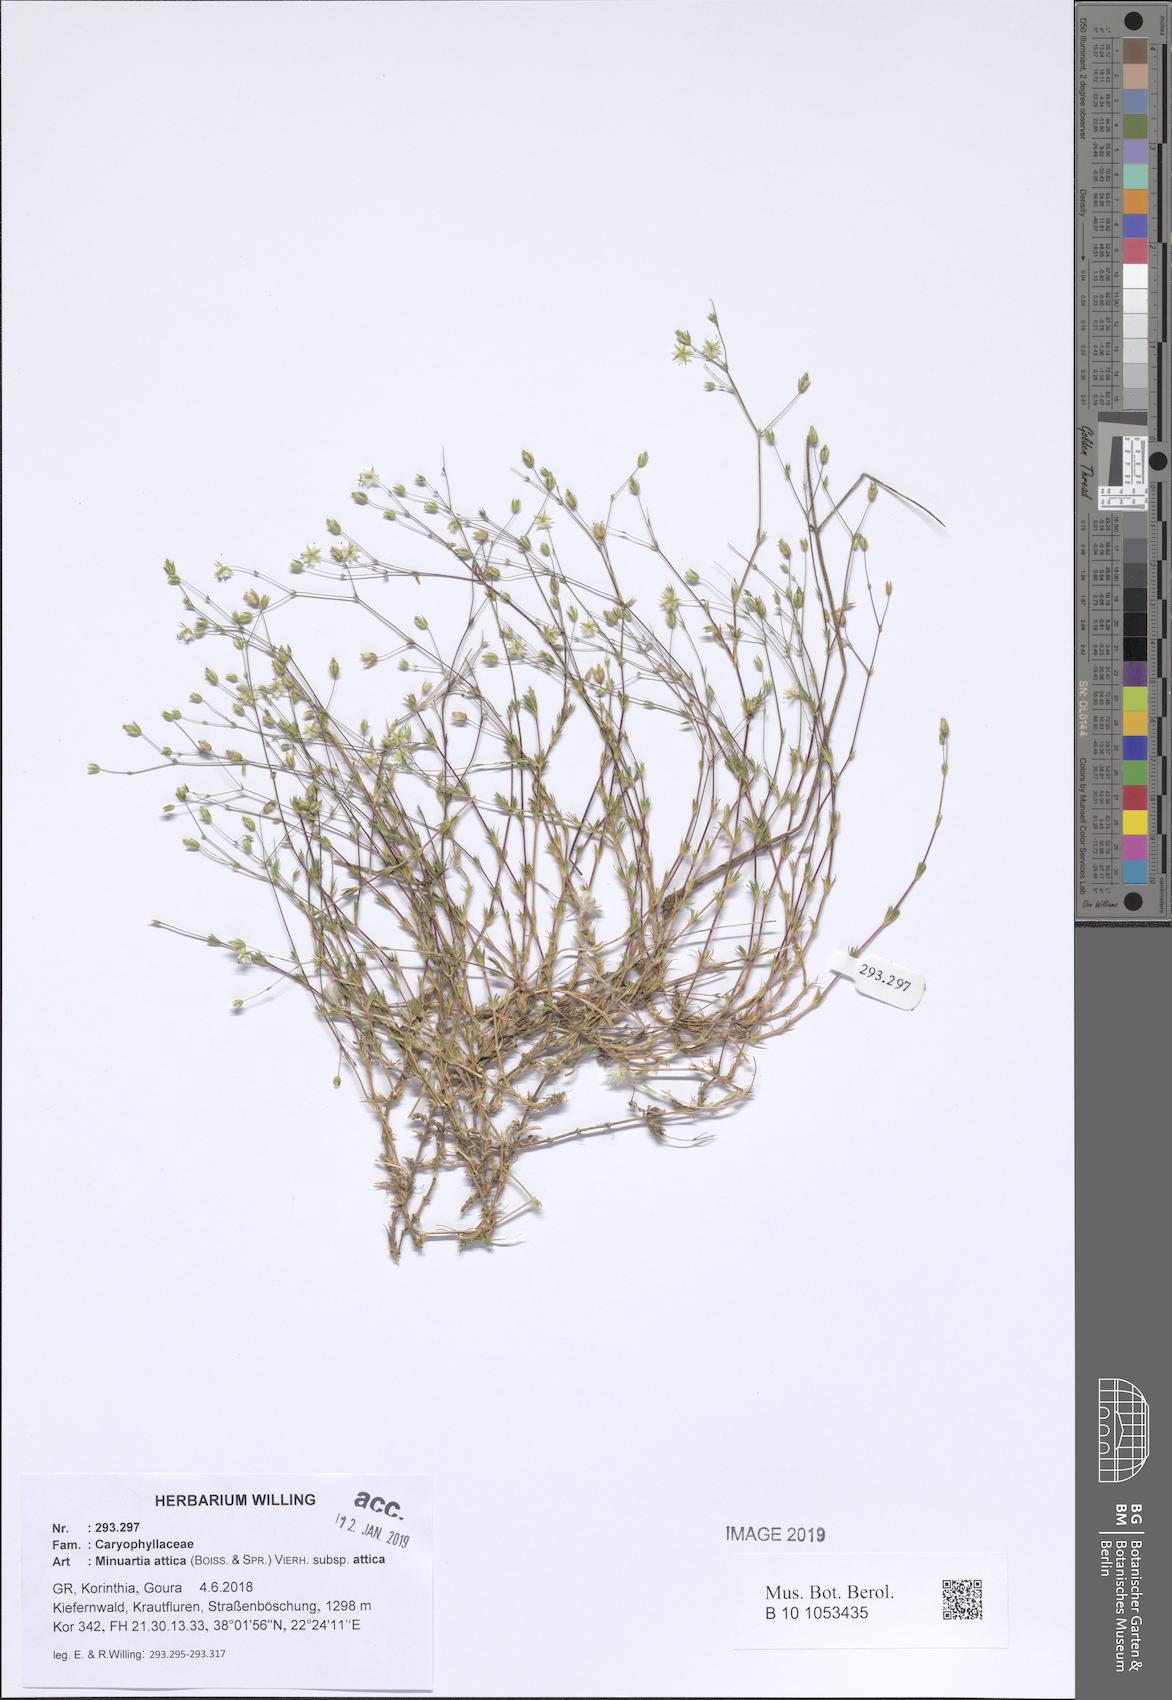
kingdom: Plantae
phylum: Tracheophyta
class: Magnoliopsida
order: Caryophyllales
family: Caryophyllaceae
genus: Sabulina
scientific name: Sabulina attica
